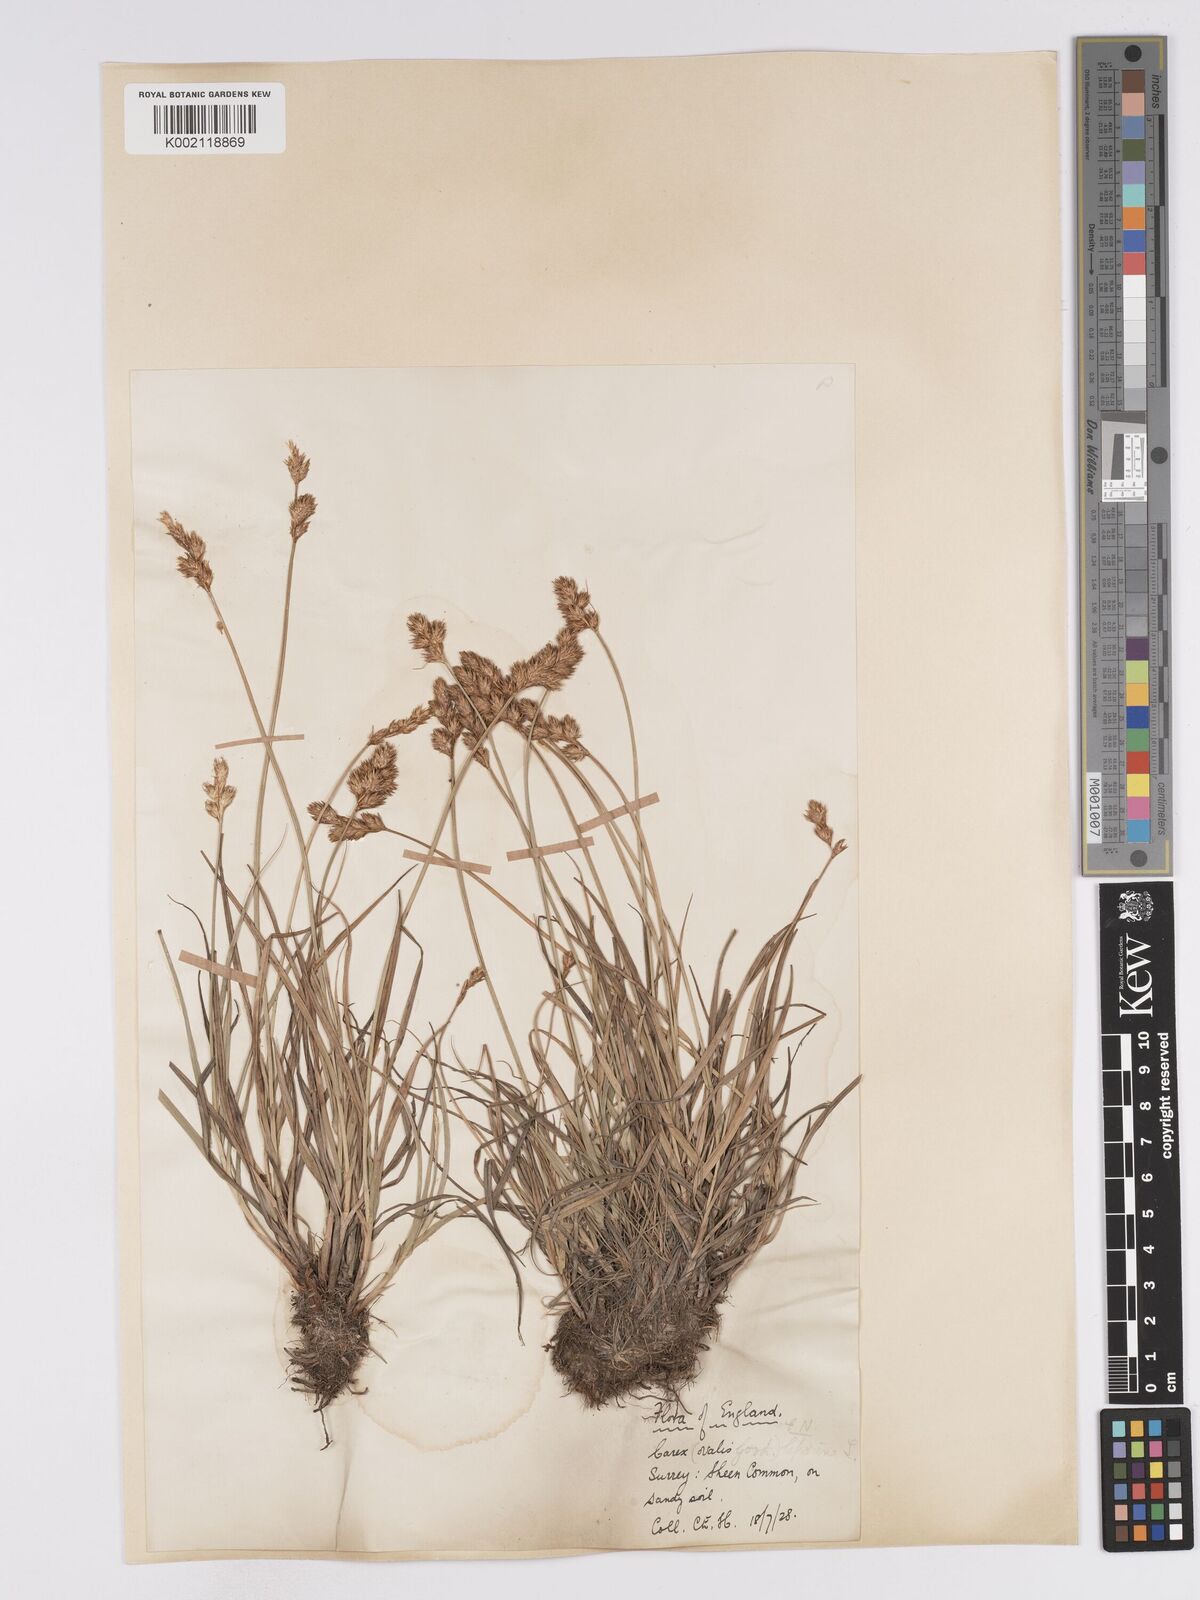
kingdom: Plantae
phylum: Tracheophyta
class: Liliopsida
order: Poales
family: Cyperaceae
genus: Carex
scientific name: Carex leporina
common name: Oval sedge
